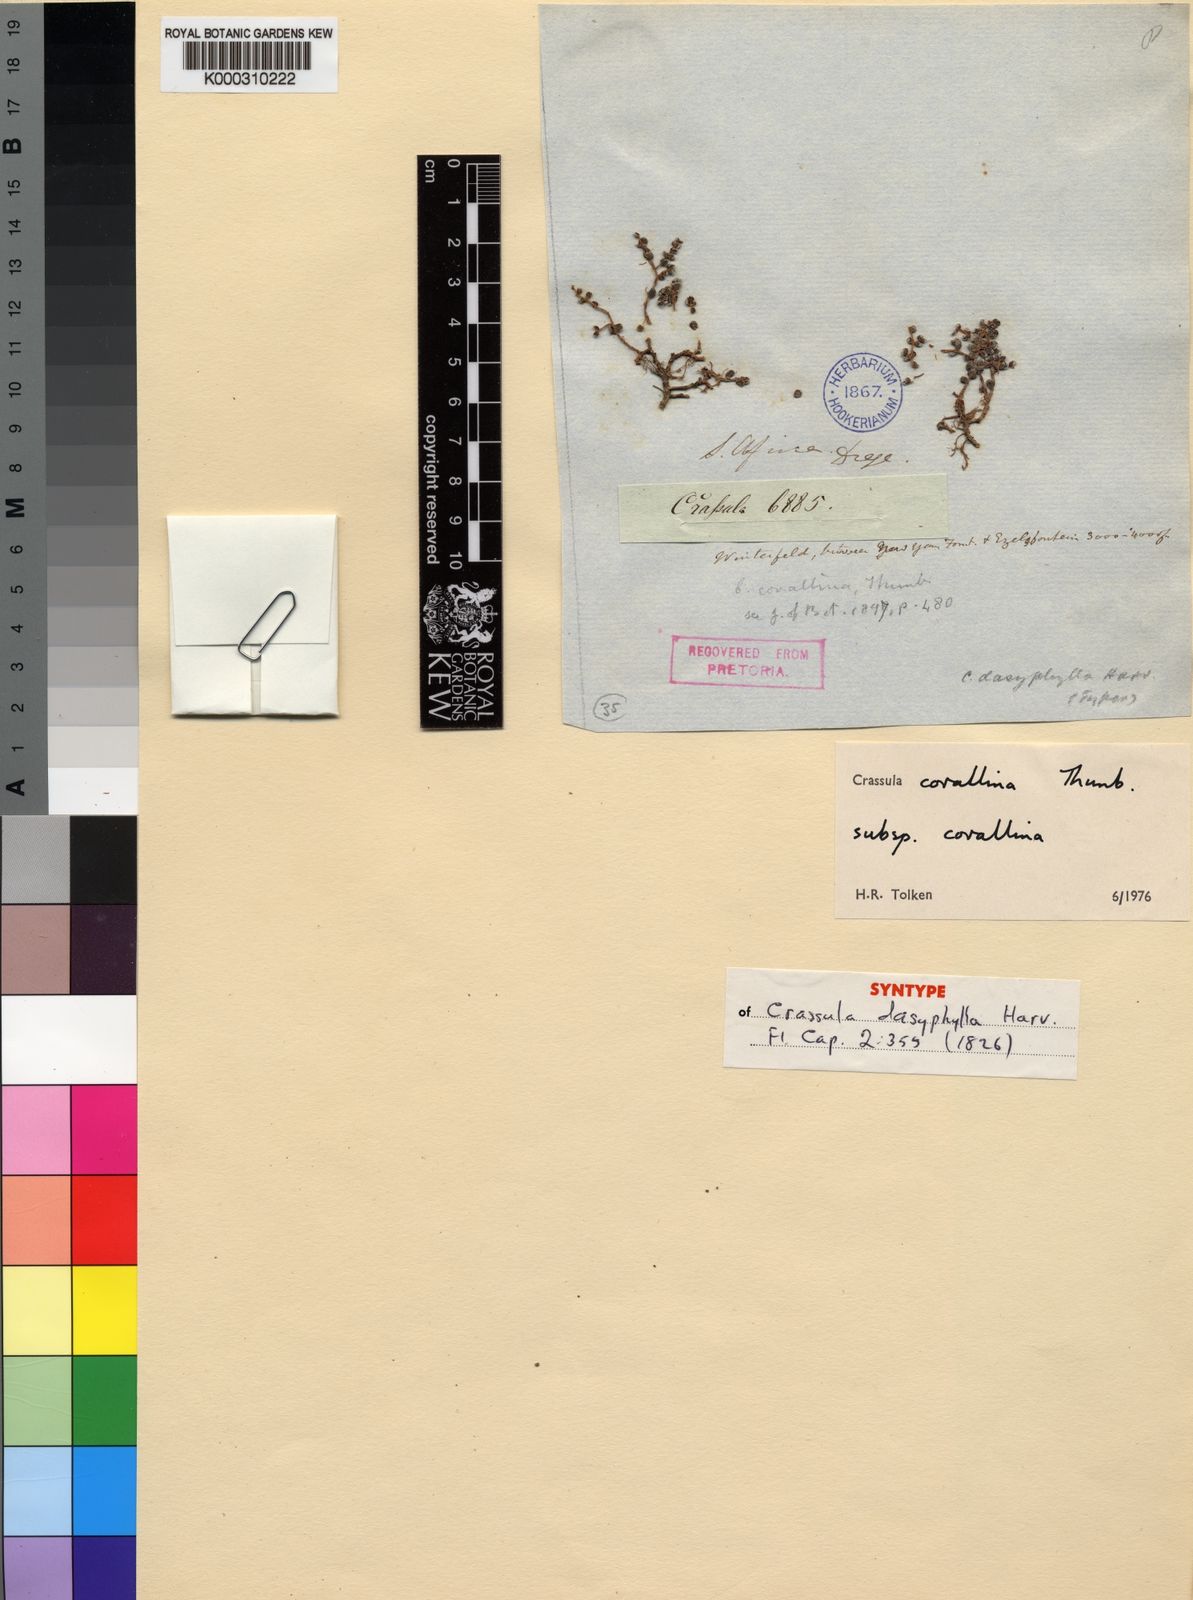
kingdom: Plantae
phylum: Tracheophyta
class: Magnoliopsida
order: Saxifragales
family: Crassulaceae
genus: Crassula
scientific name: Crassula
